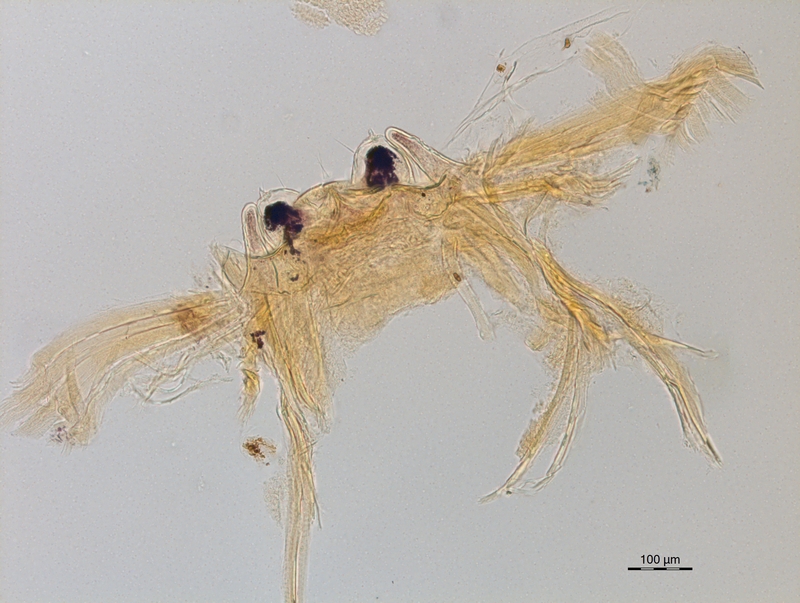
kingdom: Animalia
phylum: Arthropoda
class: Diplopoda
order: Chordeumatida
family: Craspedosomatidae
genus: Carniosoma
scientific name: Carniosoma abietum
